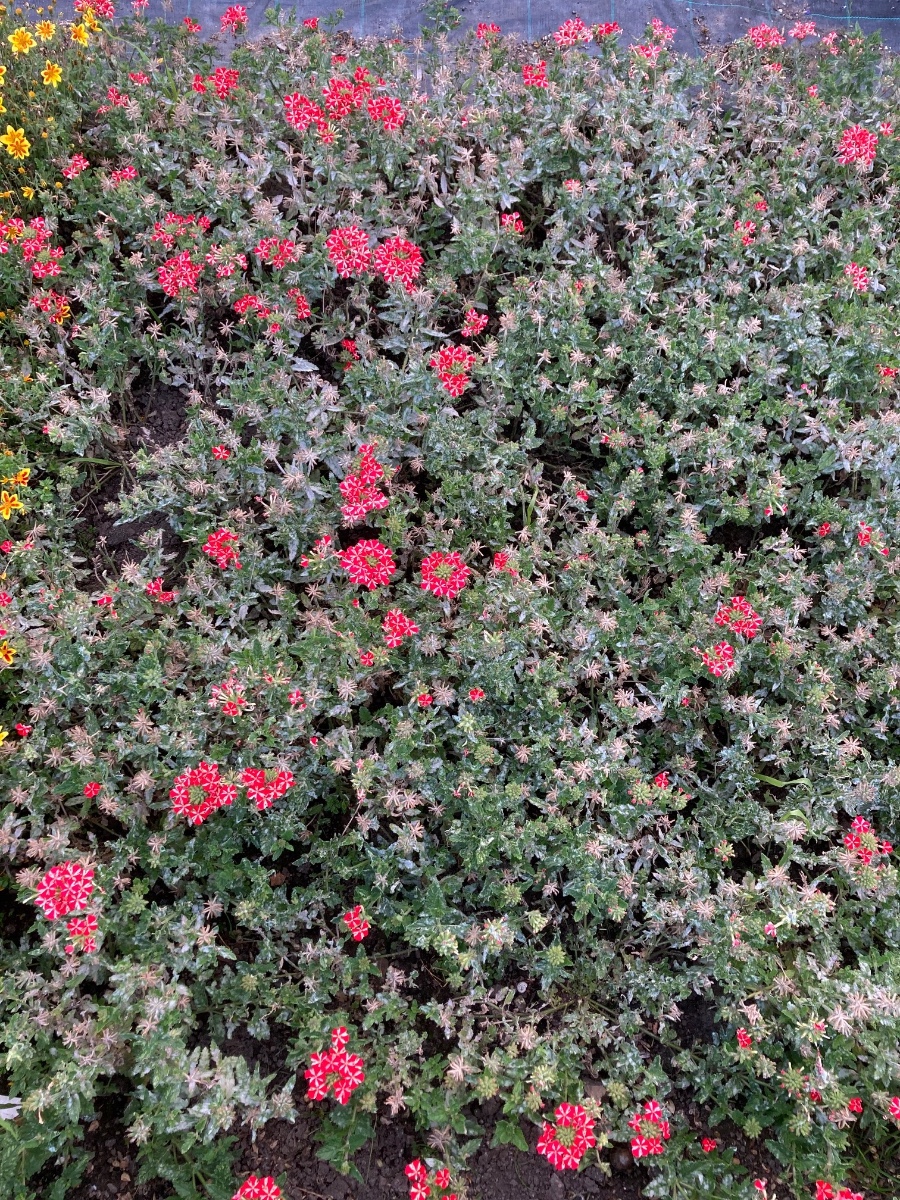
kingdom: Fungi
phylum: Ascomycota
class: Leotiomycetes
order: Helotiales
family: Erysiphaceae
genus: Golovinomyces
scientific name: Golovinomyces orontii
